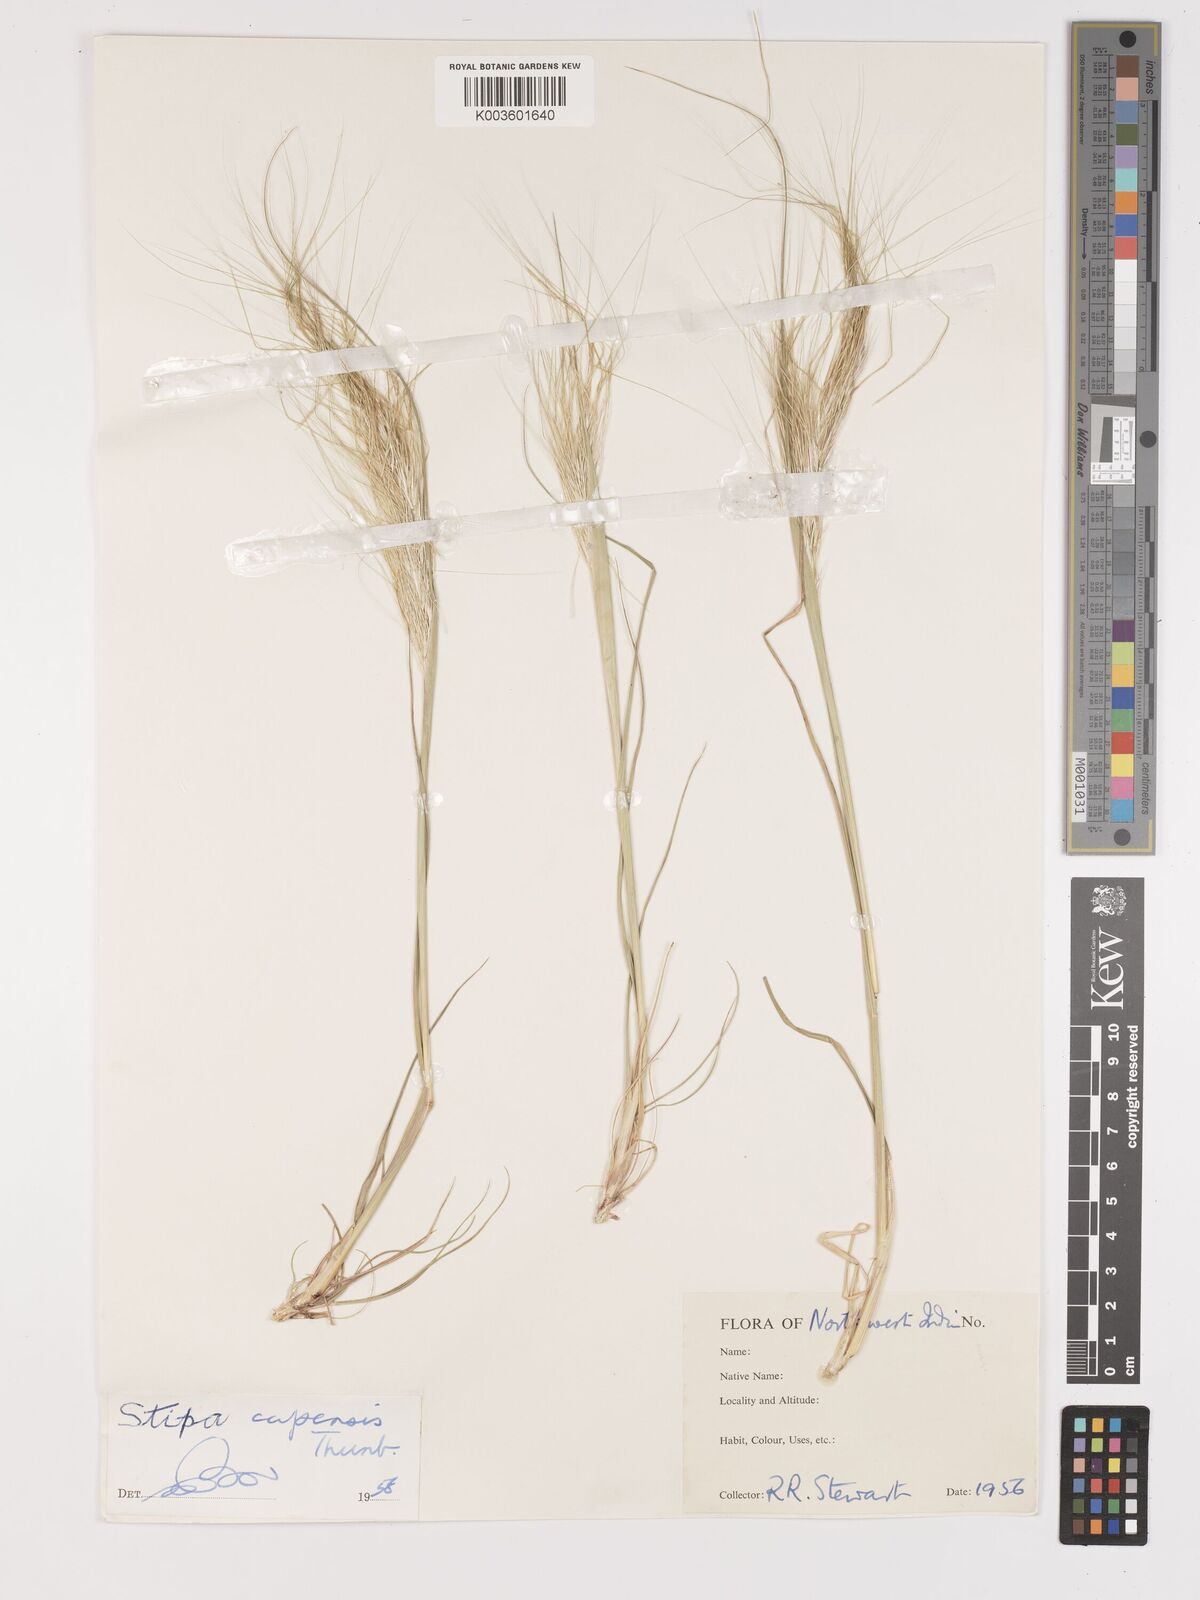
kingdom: Plantae
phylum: Tracheophyta
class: Liliopsida
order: Poales
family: Poaceae
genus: Stipellula
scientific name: Stipellula capensis
